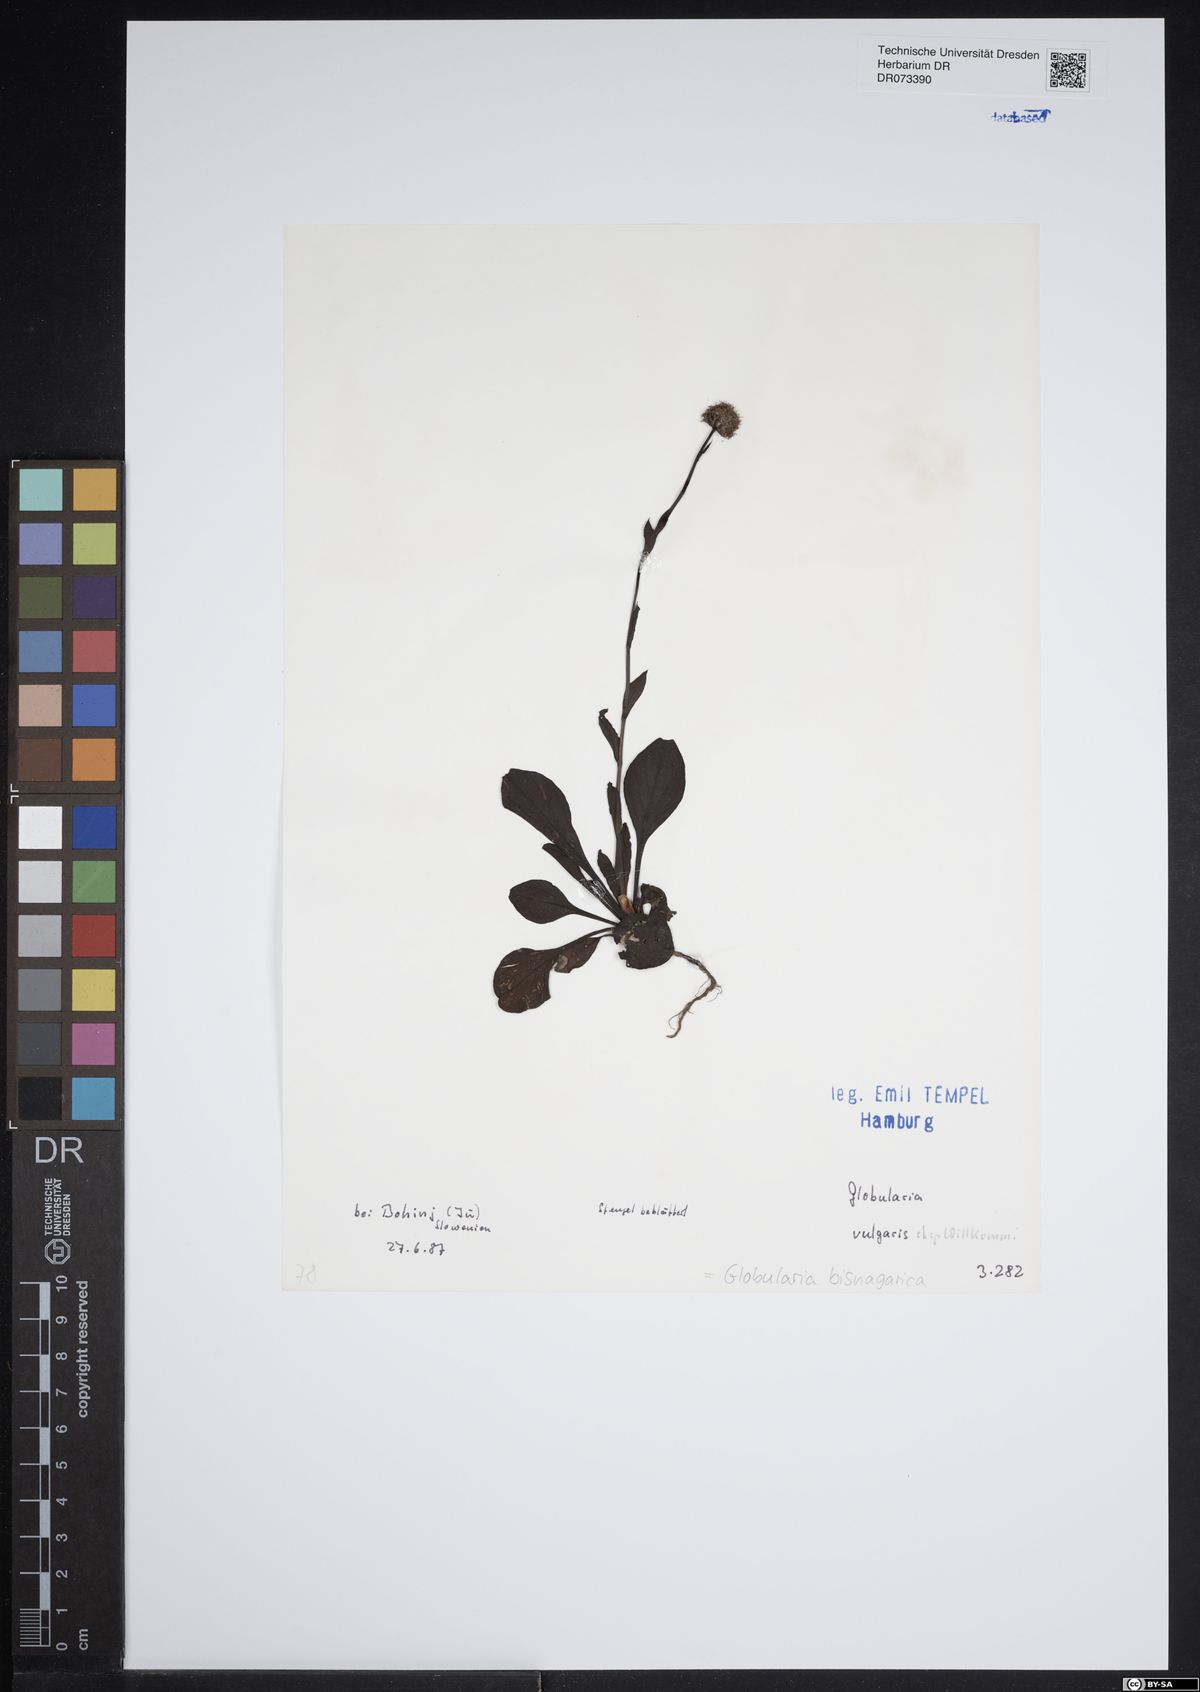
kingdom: Plantae
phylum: Tracheophyta
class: Magnoliopsida
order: Lamiales
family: Plantaginaceae
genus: Globularia
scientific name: Globularia bisnagarica
